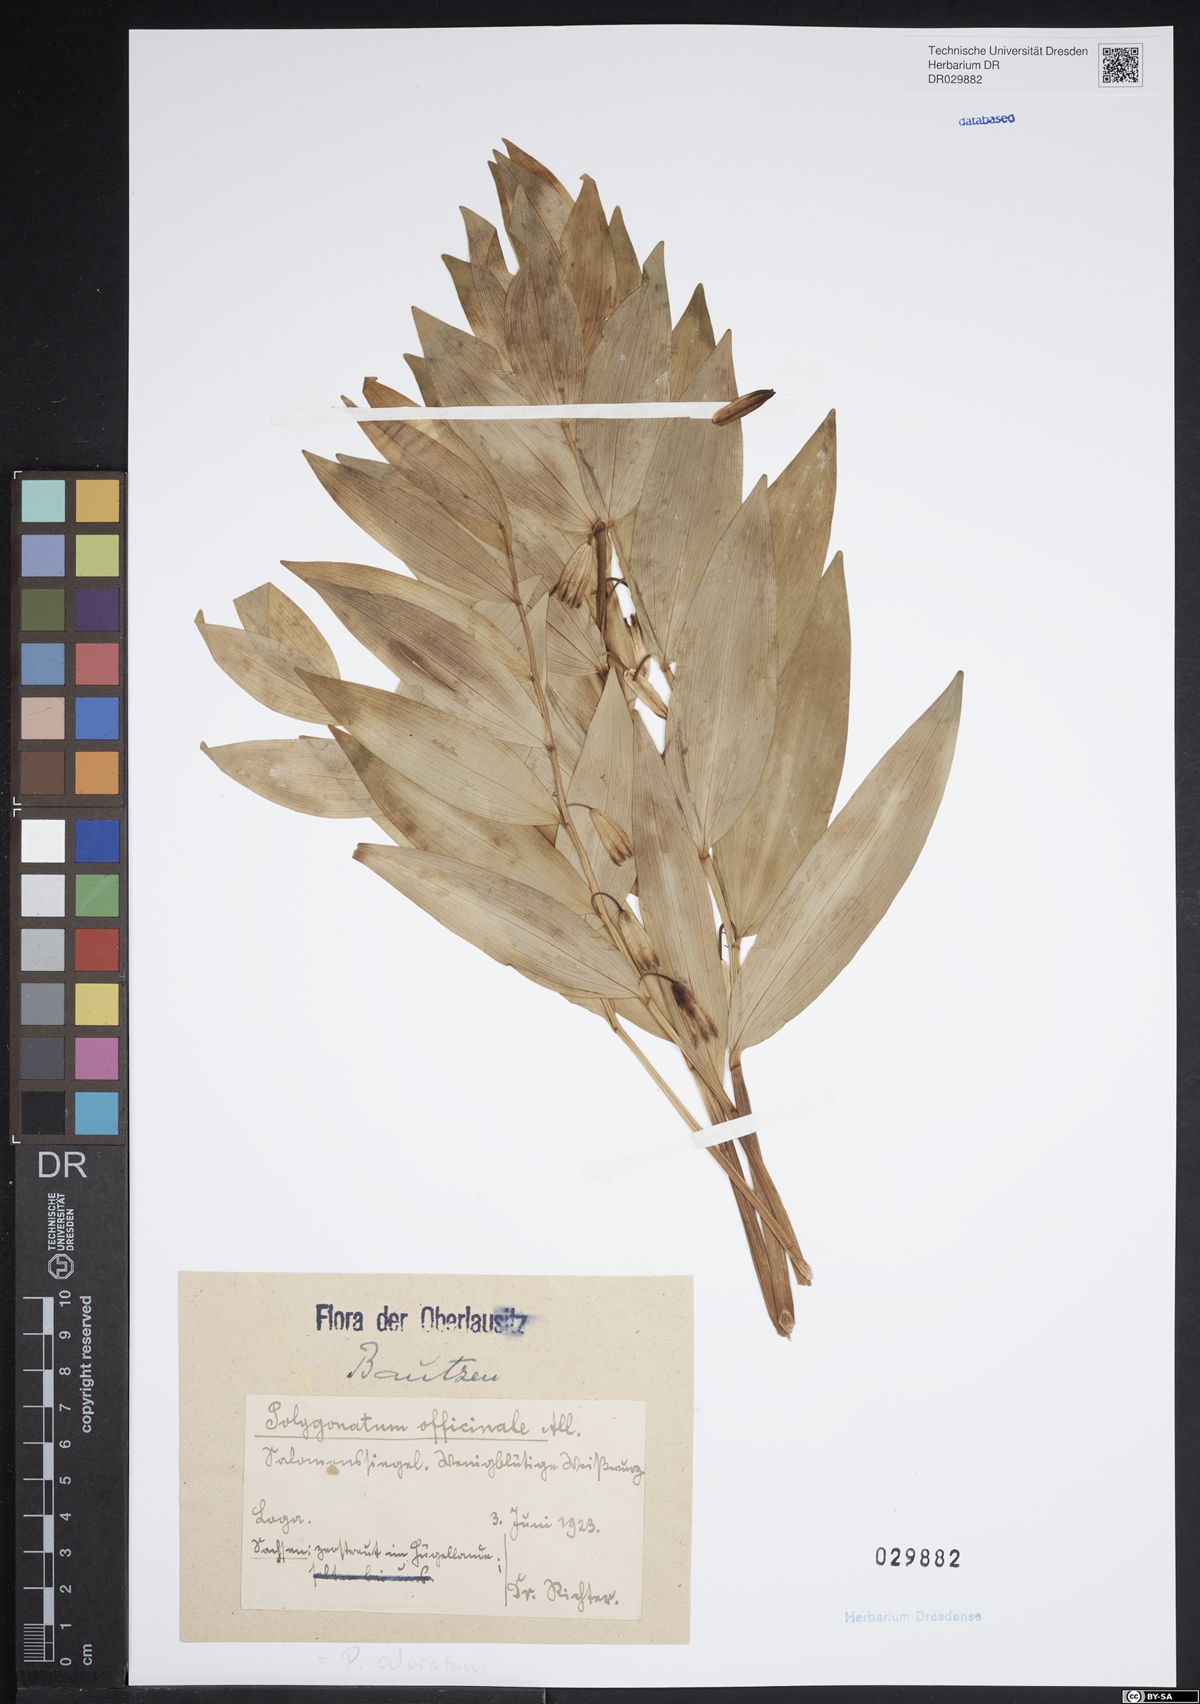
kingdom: Plantae
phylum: Tracheophyta
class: Liliopsida
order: Asparagales
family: Asparagaceae
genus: Polygonatum
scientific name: Polygonatum odoratum
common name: Angular solomon's-seal
